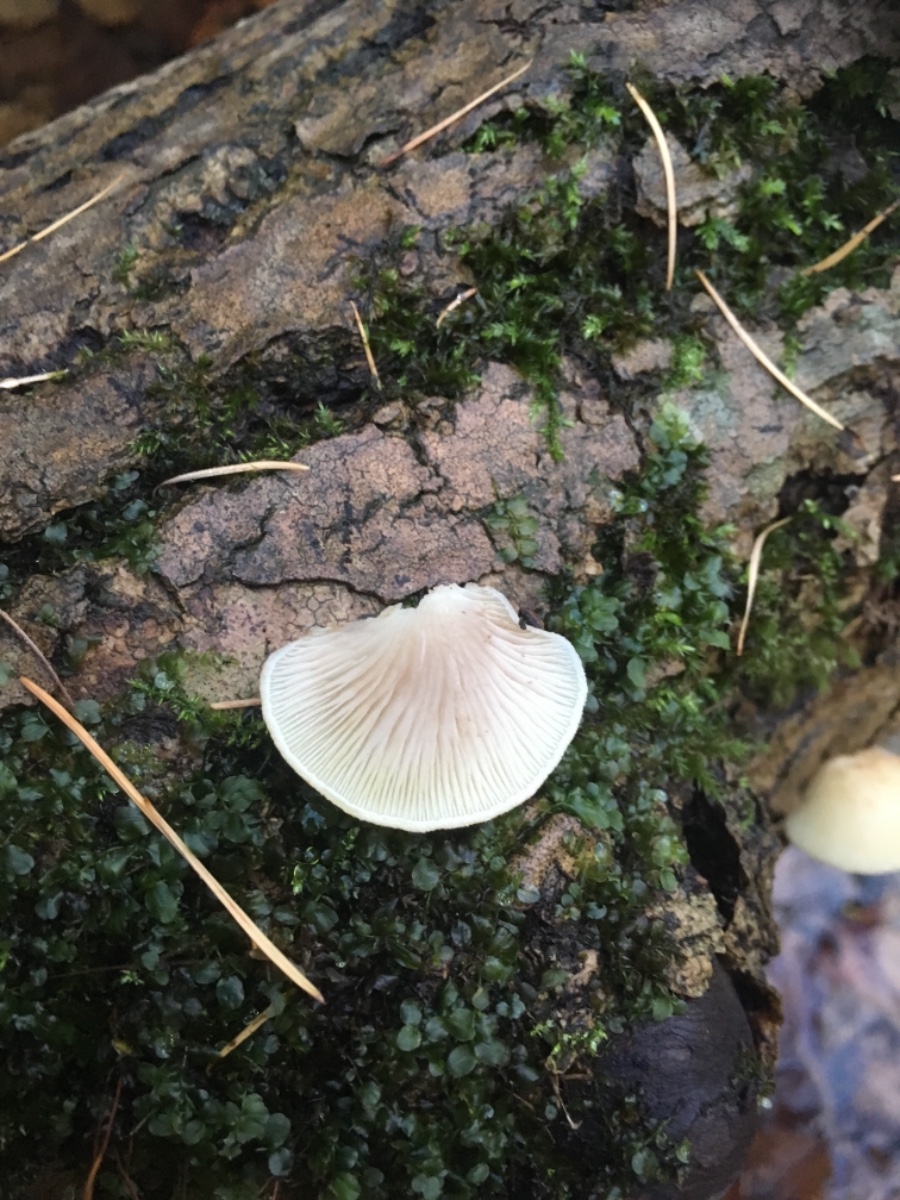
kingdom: Fungi
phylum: Basidiomycota
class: Agaricomycetes
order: Agaricales
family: Crepidotaceae
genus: Crepidotus
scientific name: Crepidotus mollis
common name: blød muslingesvamp
